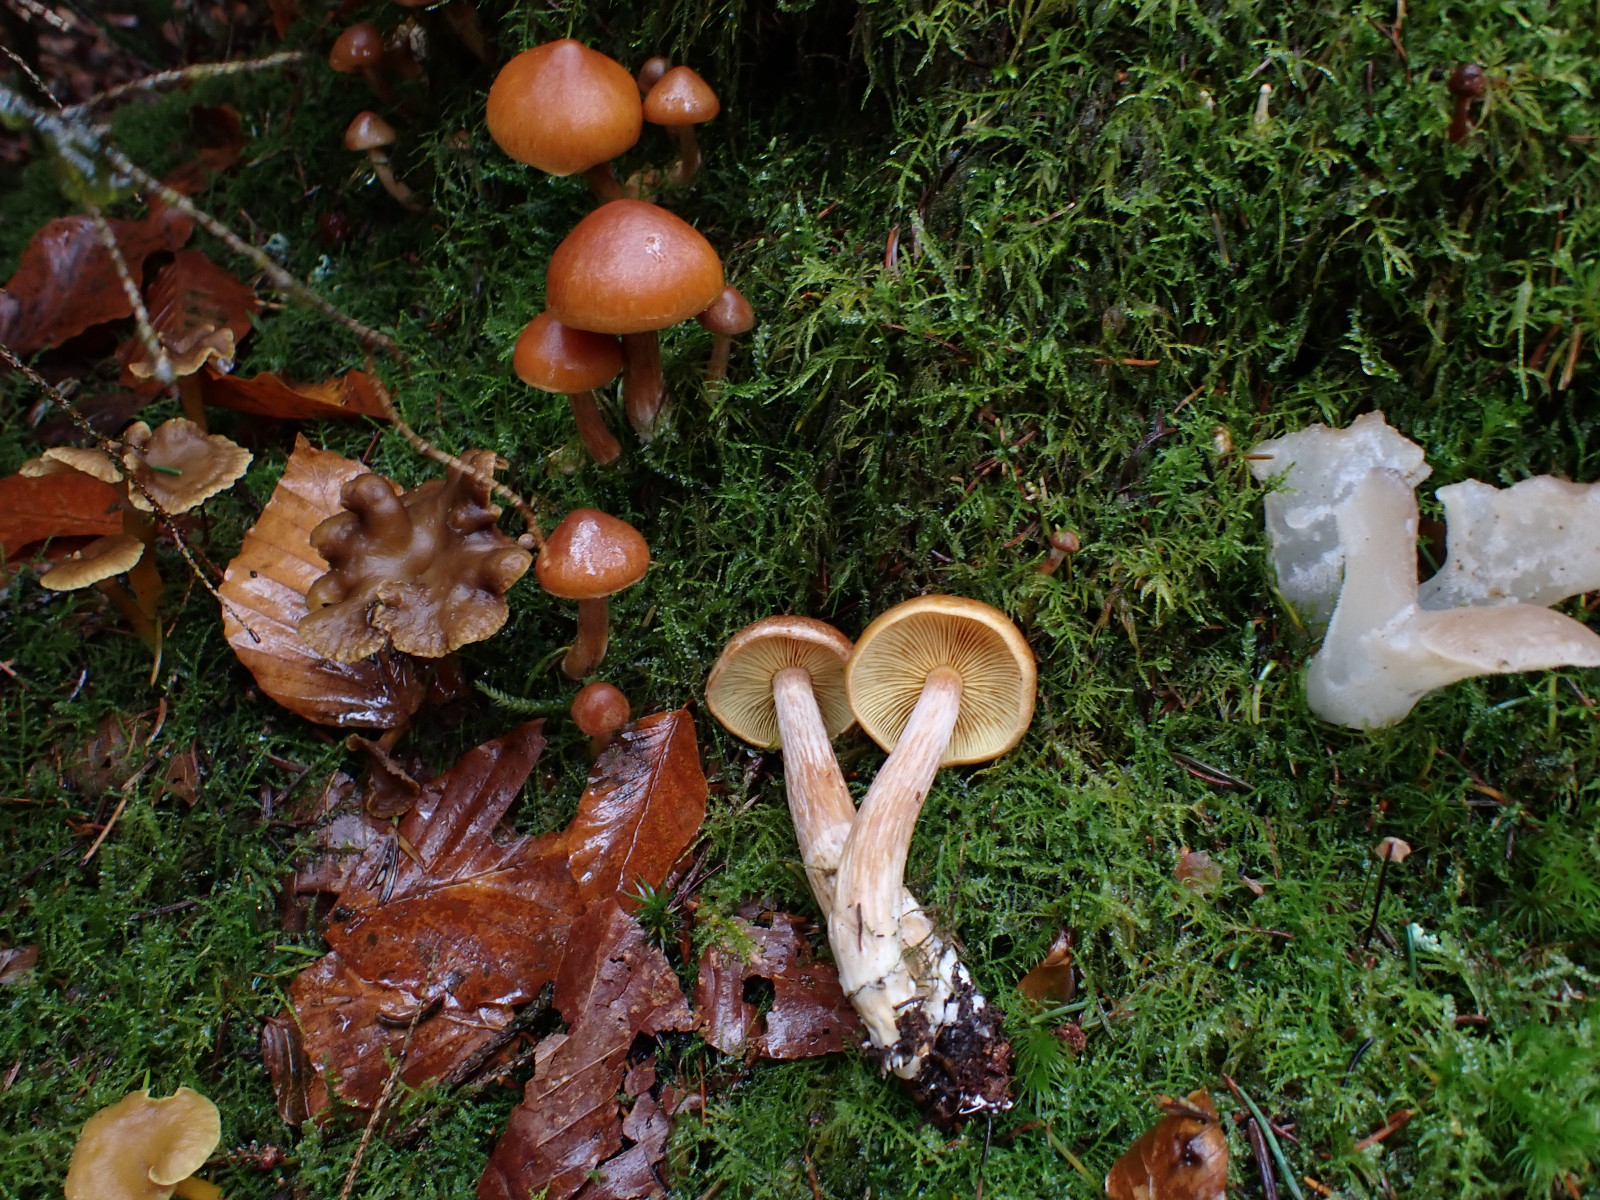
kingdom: Fungi
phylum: Basidiomycota
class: Agaricomycetes
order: Agaricales
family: Hymenogastraceae
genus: Gymnopilus
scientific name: Gymnopilus penetrans
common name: plettet flammehat
